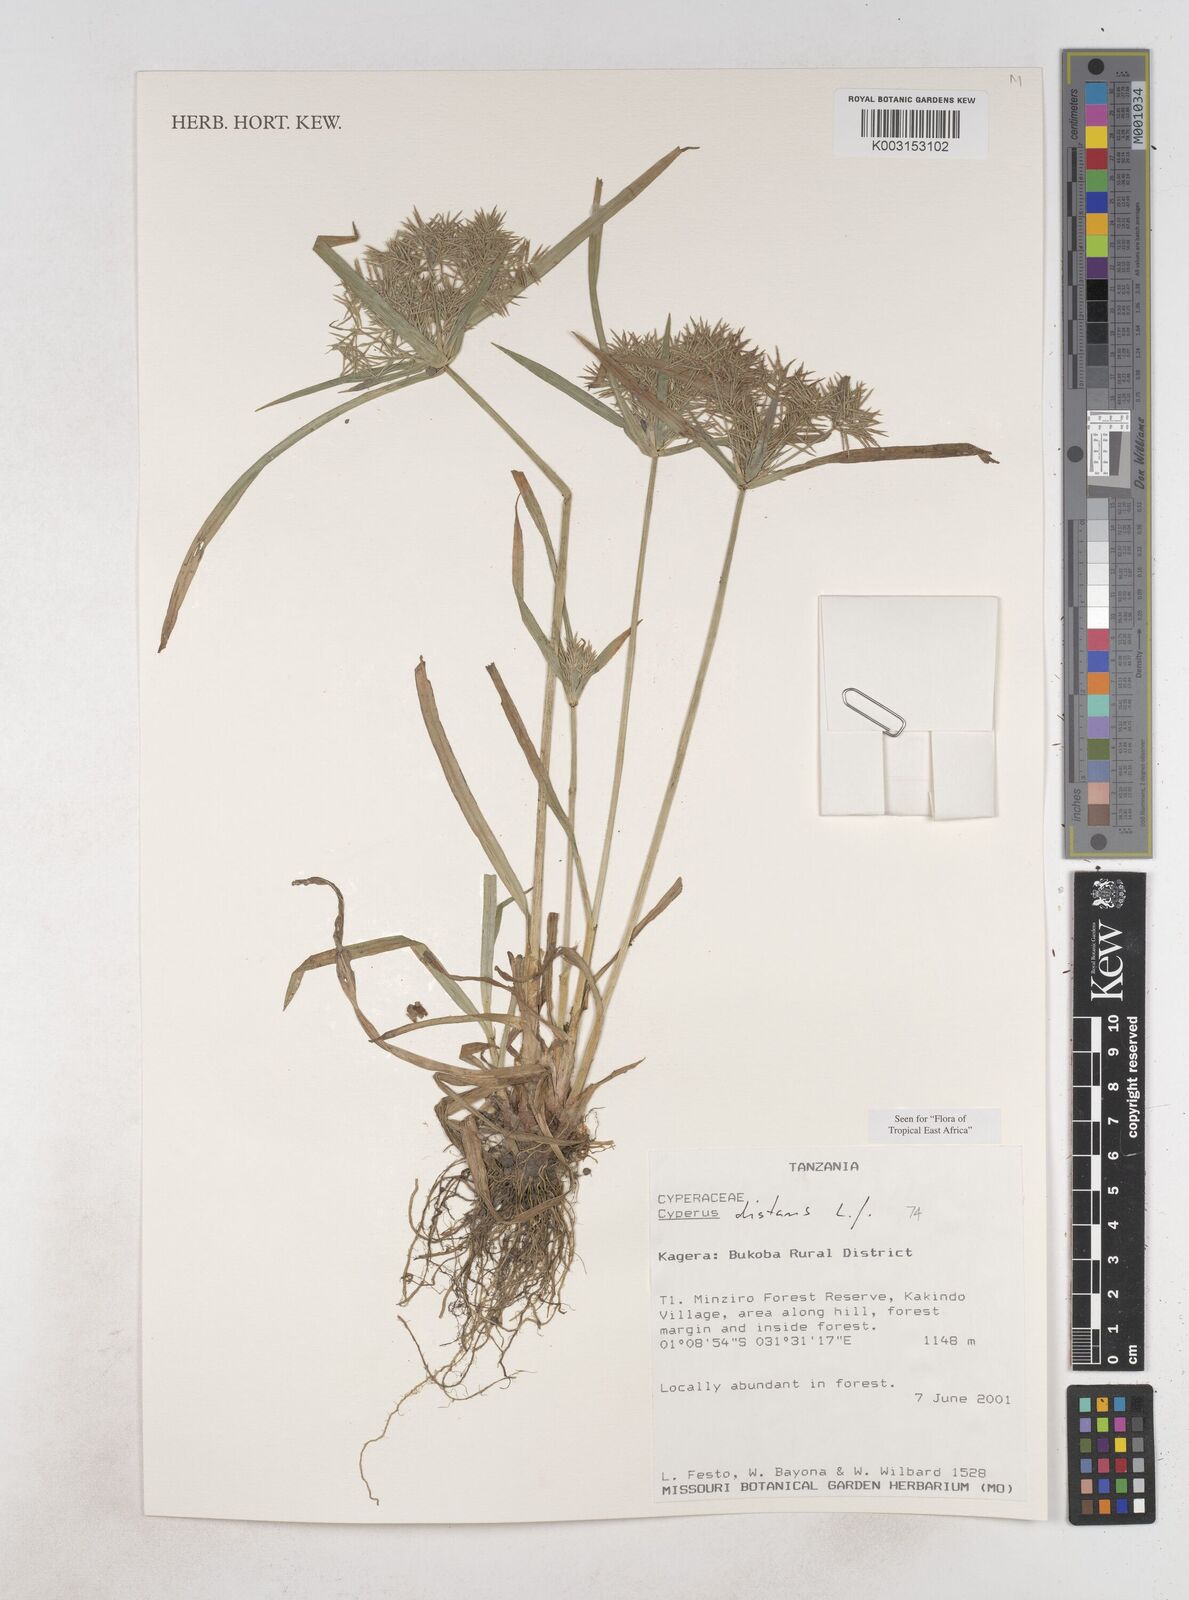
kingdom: Plantae
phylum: Tracheophyta
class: Liliopsida
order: Poales
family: Cyperaceae
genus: Cyperus
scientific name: Cyperus distans
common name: Slender cyperus
